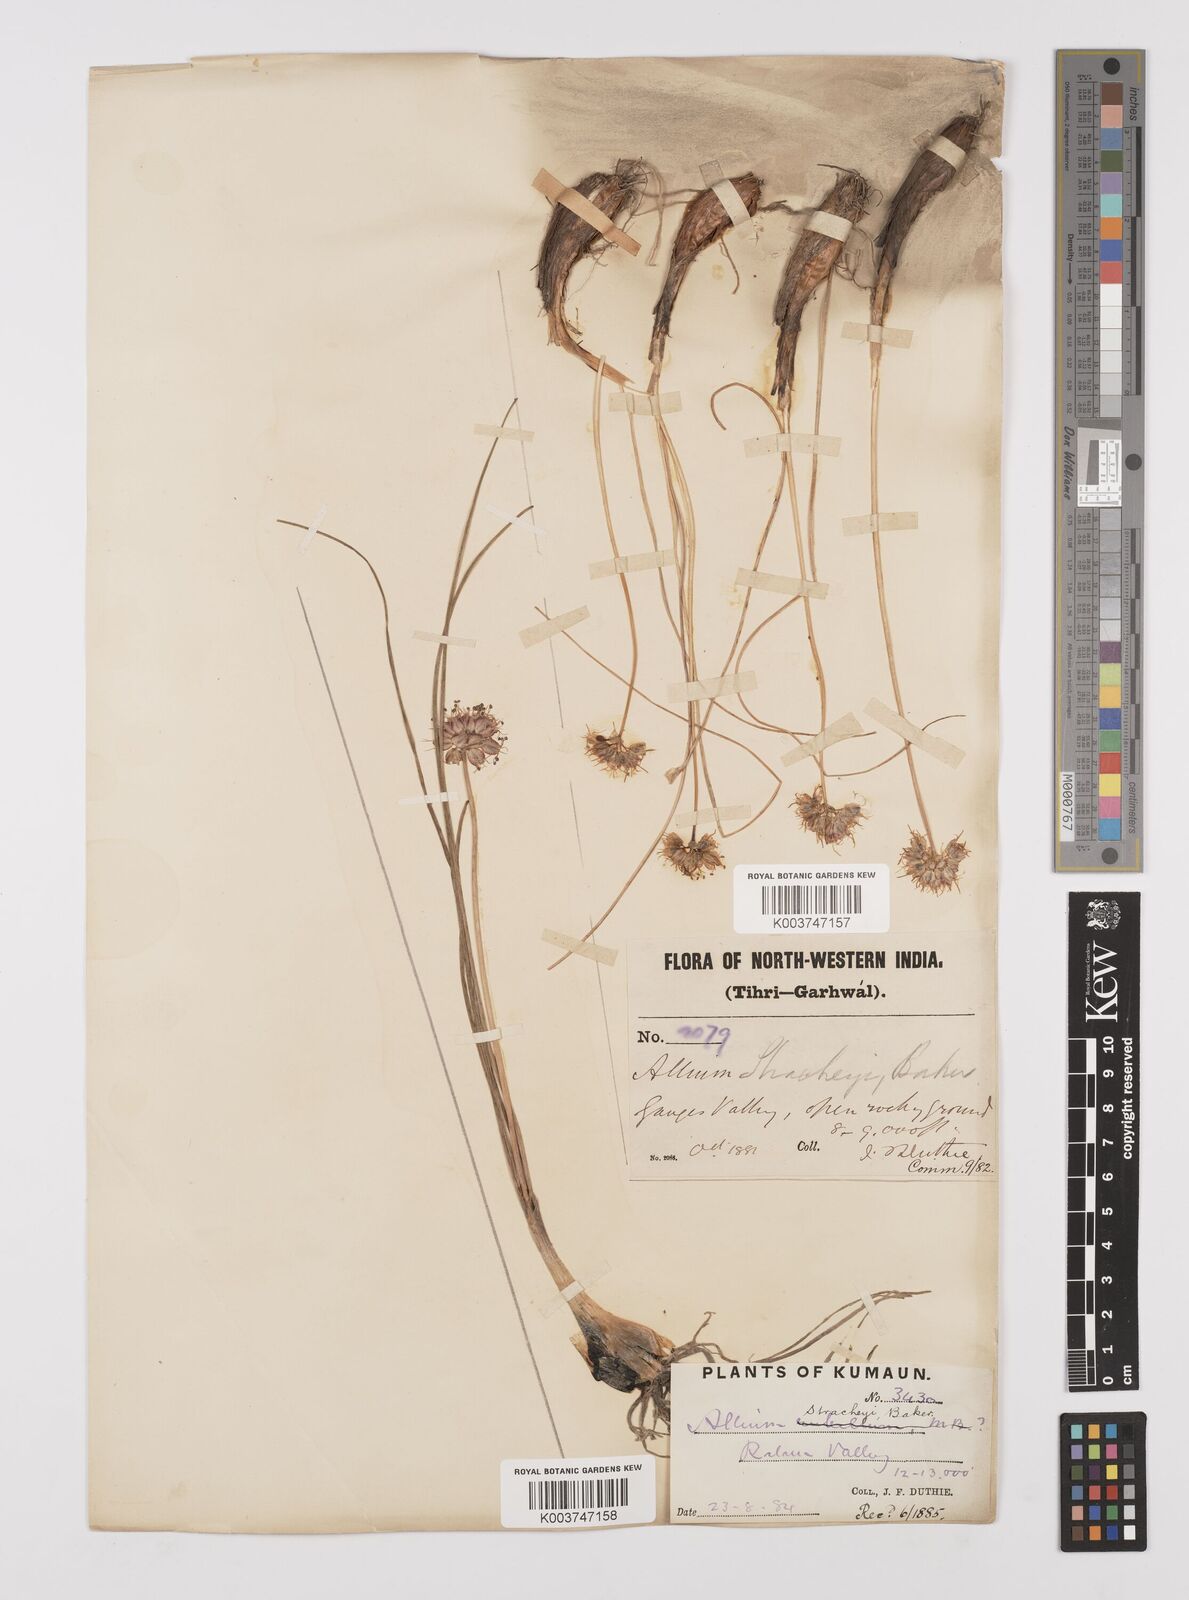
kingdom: Plantae
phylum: Tracheophyta
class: Liliopsida
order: Asparagales
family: Amaryllidaceae
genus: Allium
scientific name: Allium stracheyi
